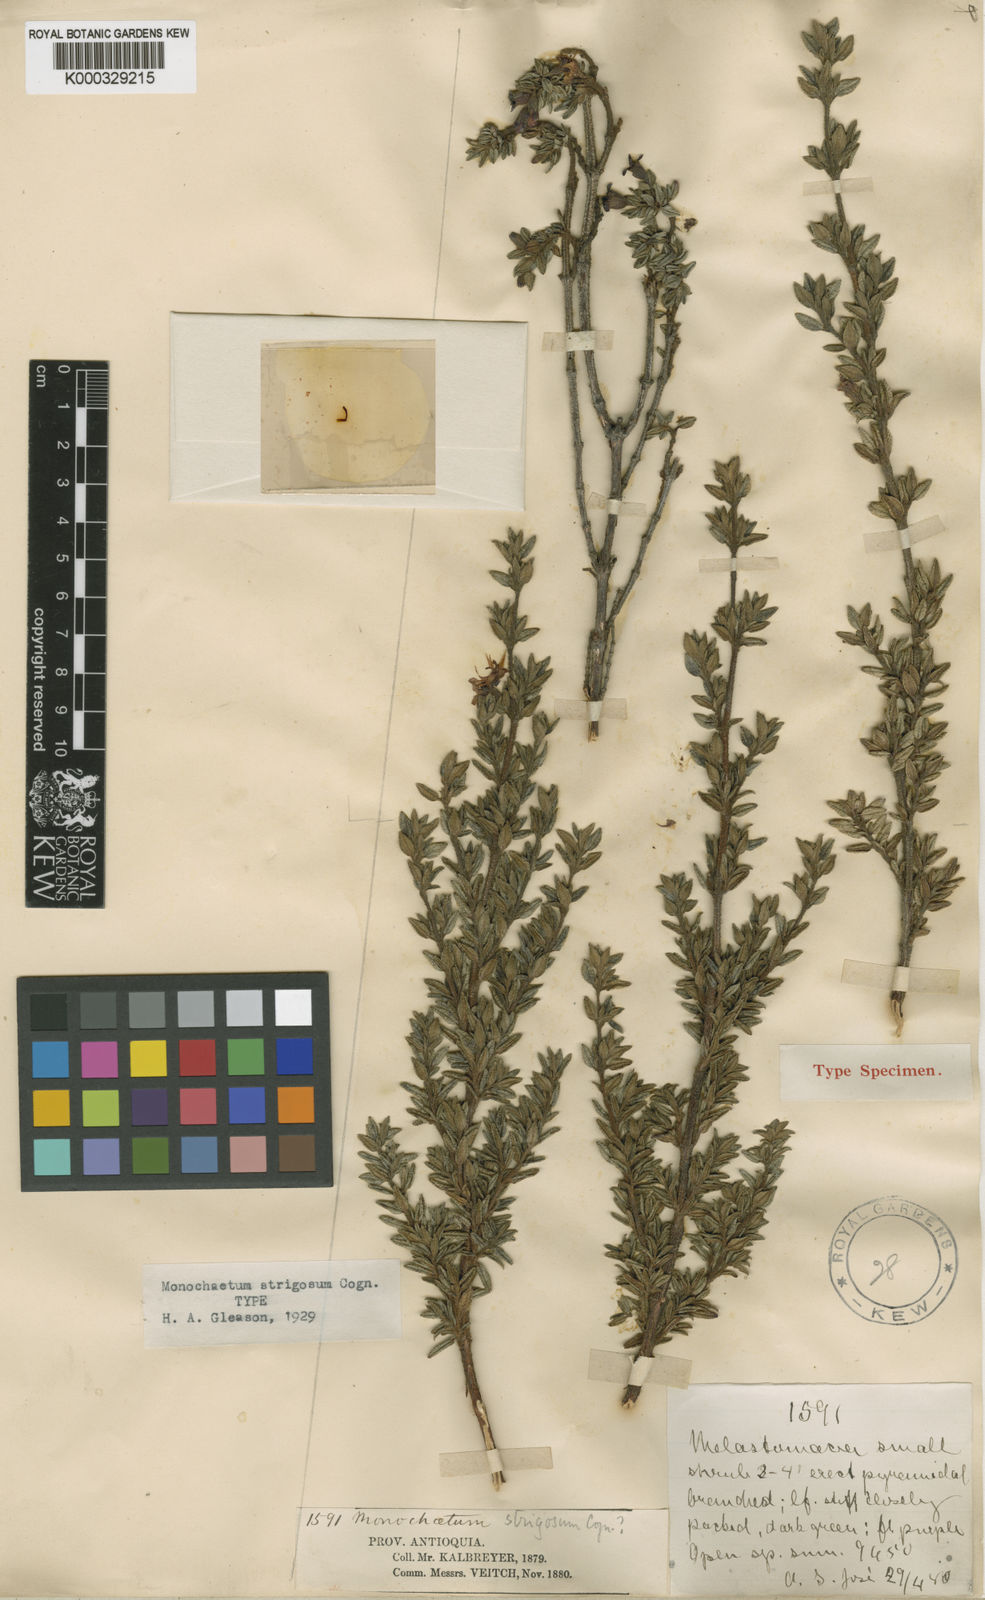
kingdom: Plantae
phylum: Tracheophyta
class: Magnoliopsida
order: Myrtales
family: Melastomataceae
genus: Monochaetum
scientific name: Monochaetum strigosum
